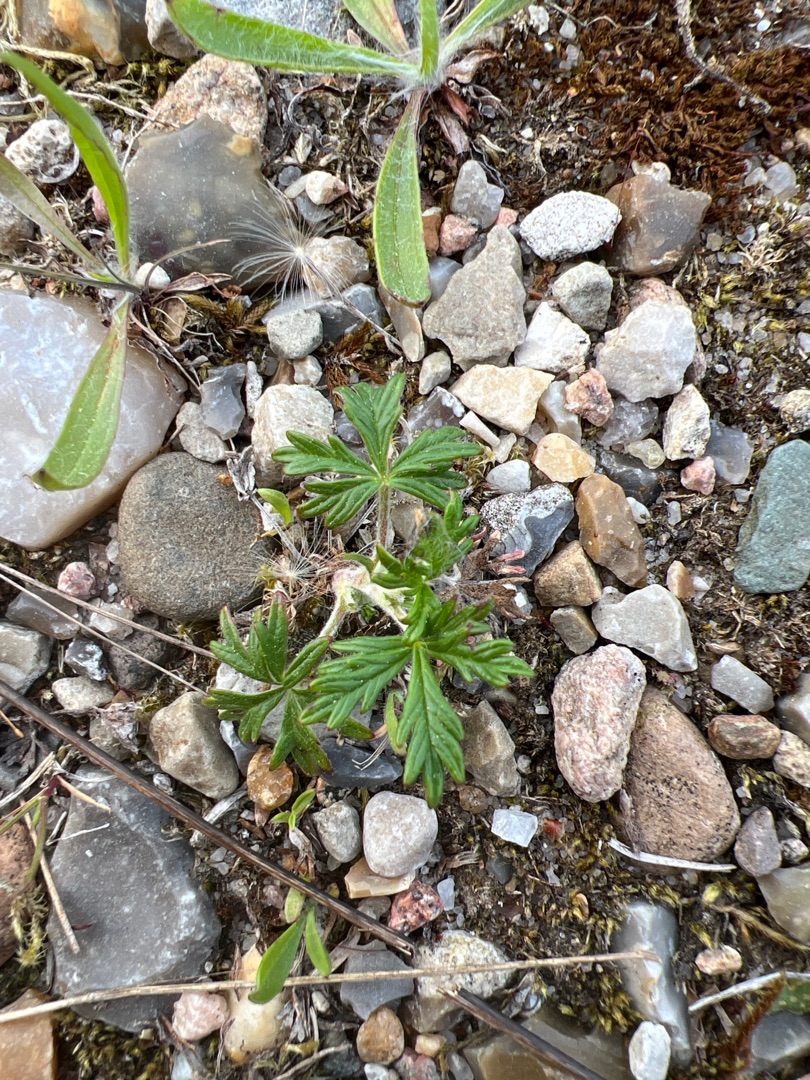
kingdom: Plantae
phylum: Tracheophyta
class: Magnoliopsida
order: Rosales
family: Rosaceae
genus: Potentilla
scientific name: Potentilla argentea
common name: Sølv-potentil
